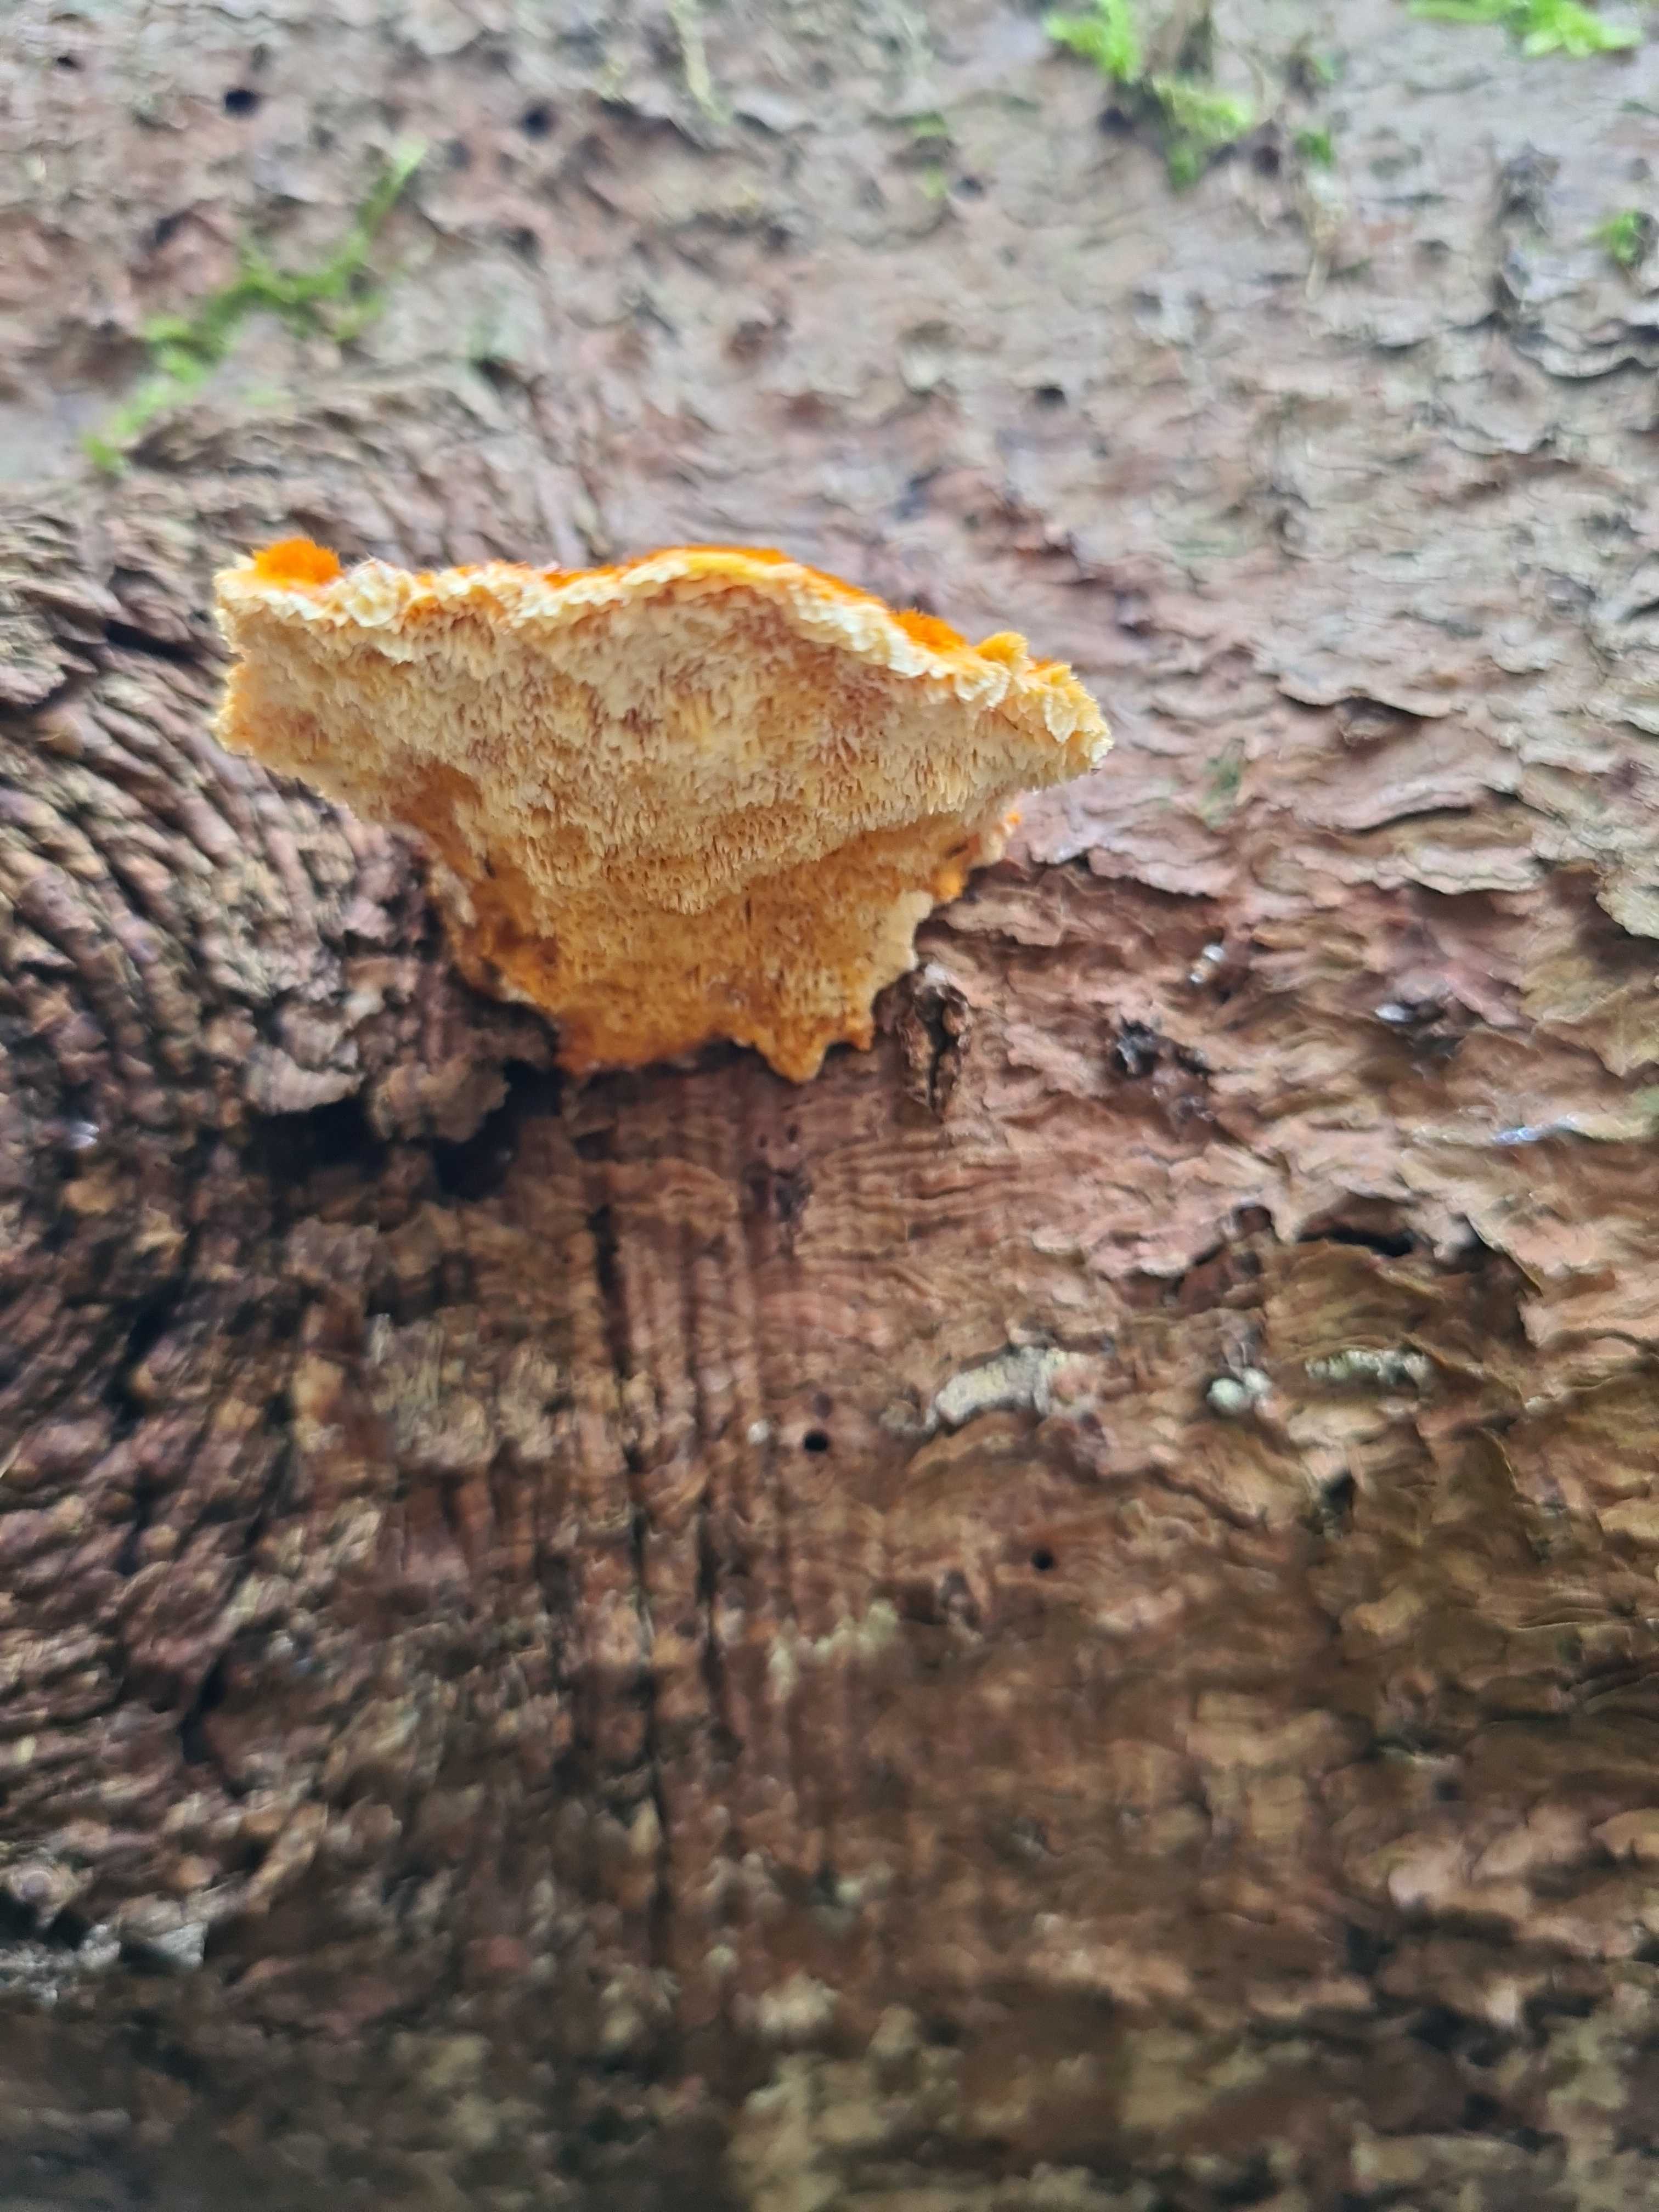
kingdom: Fungi
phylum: Basidiomycota
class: Agaricomycetes
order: Polyporales
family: Pycnoporellaceae
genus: Pycnoporellus
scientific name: Pycnoporellus fulgens
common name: flammeporesvamp
